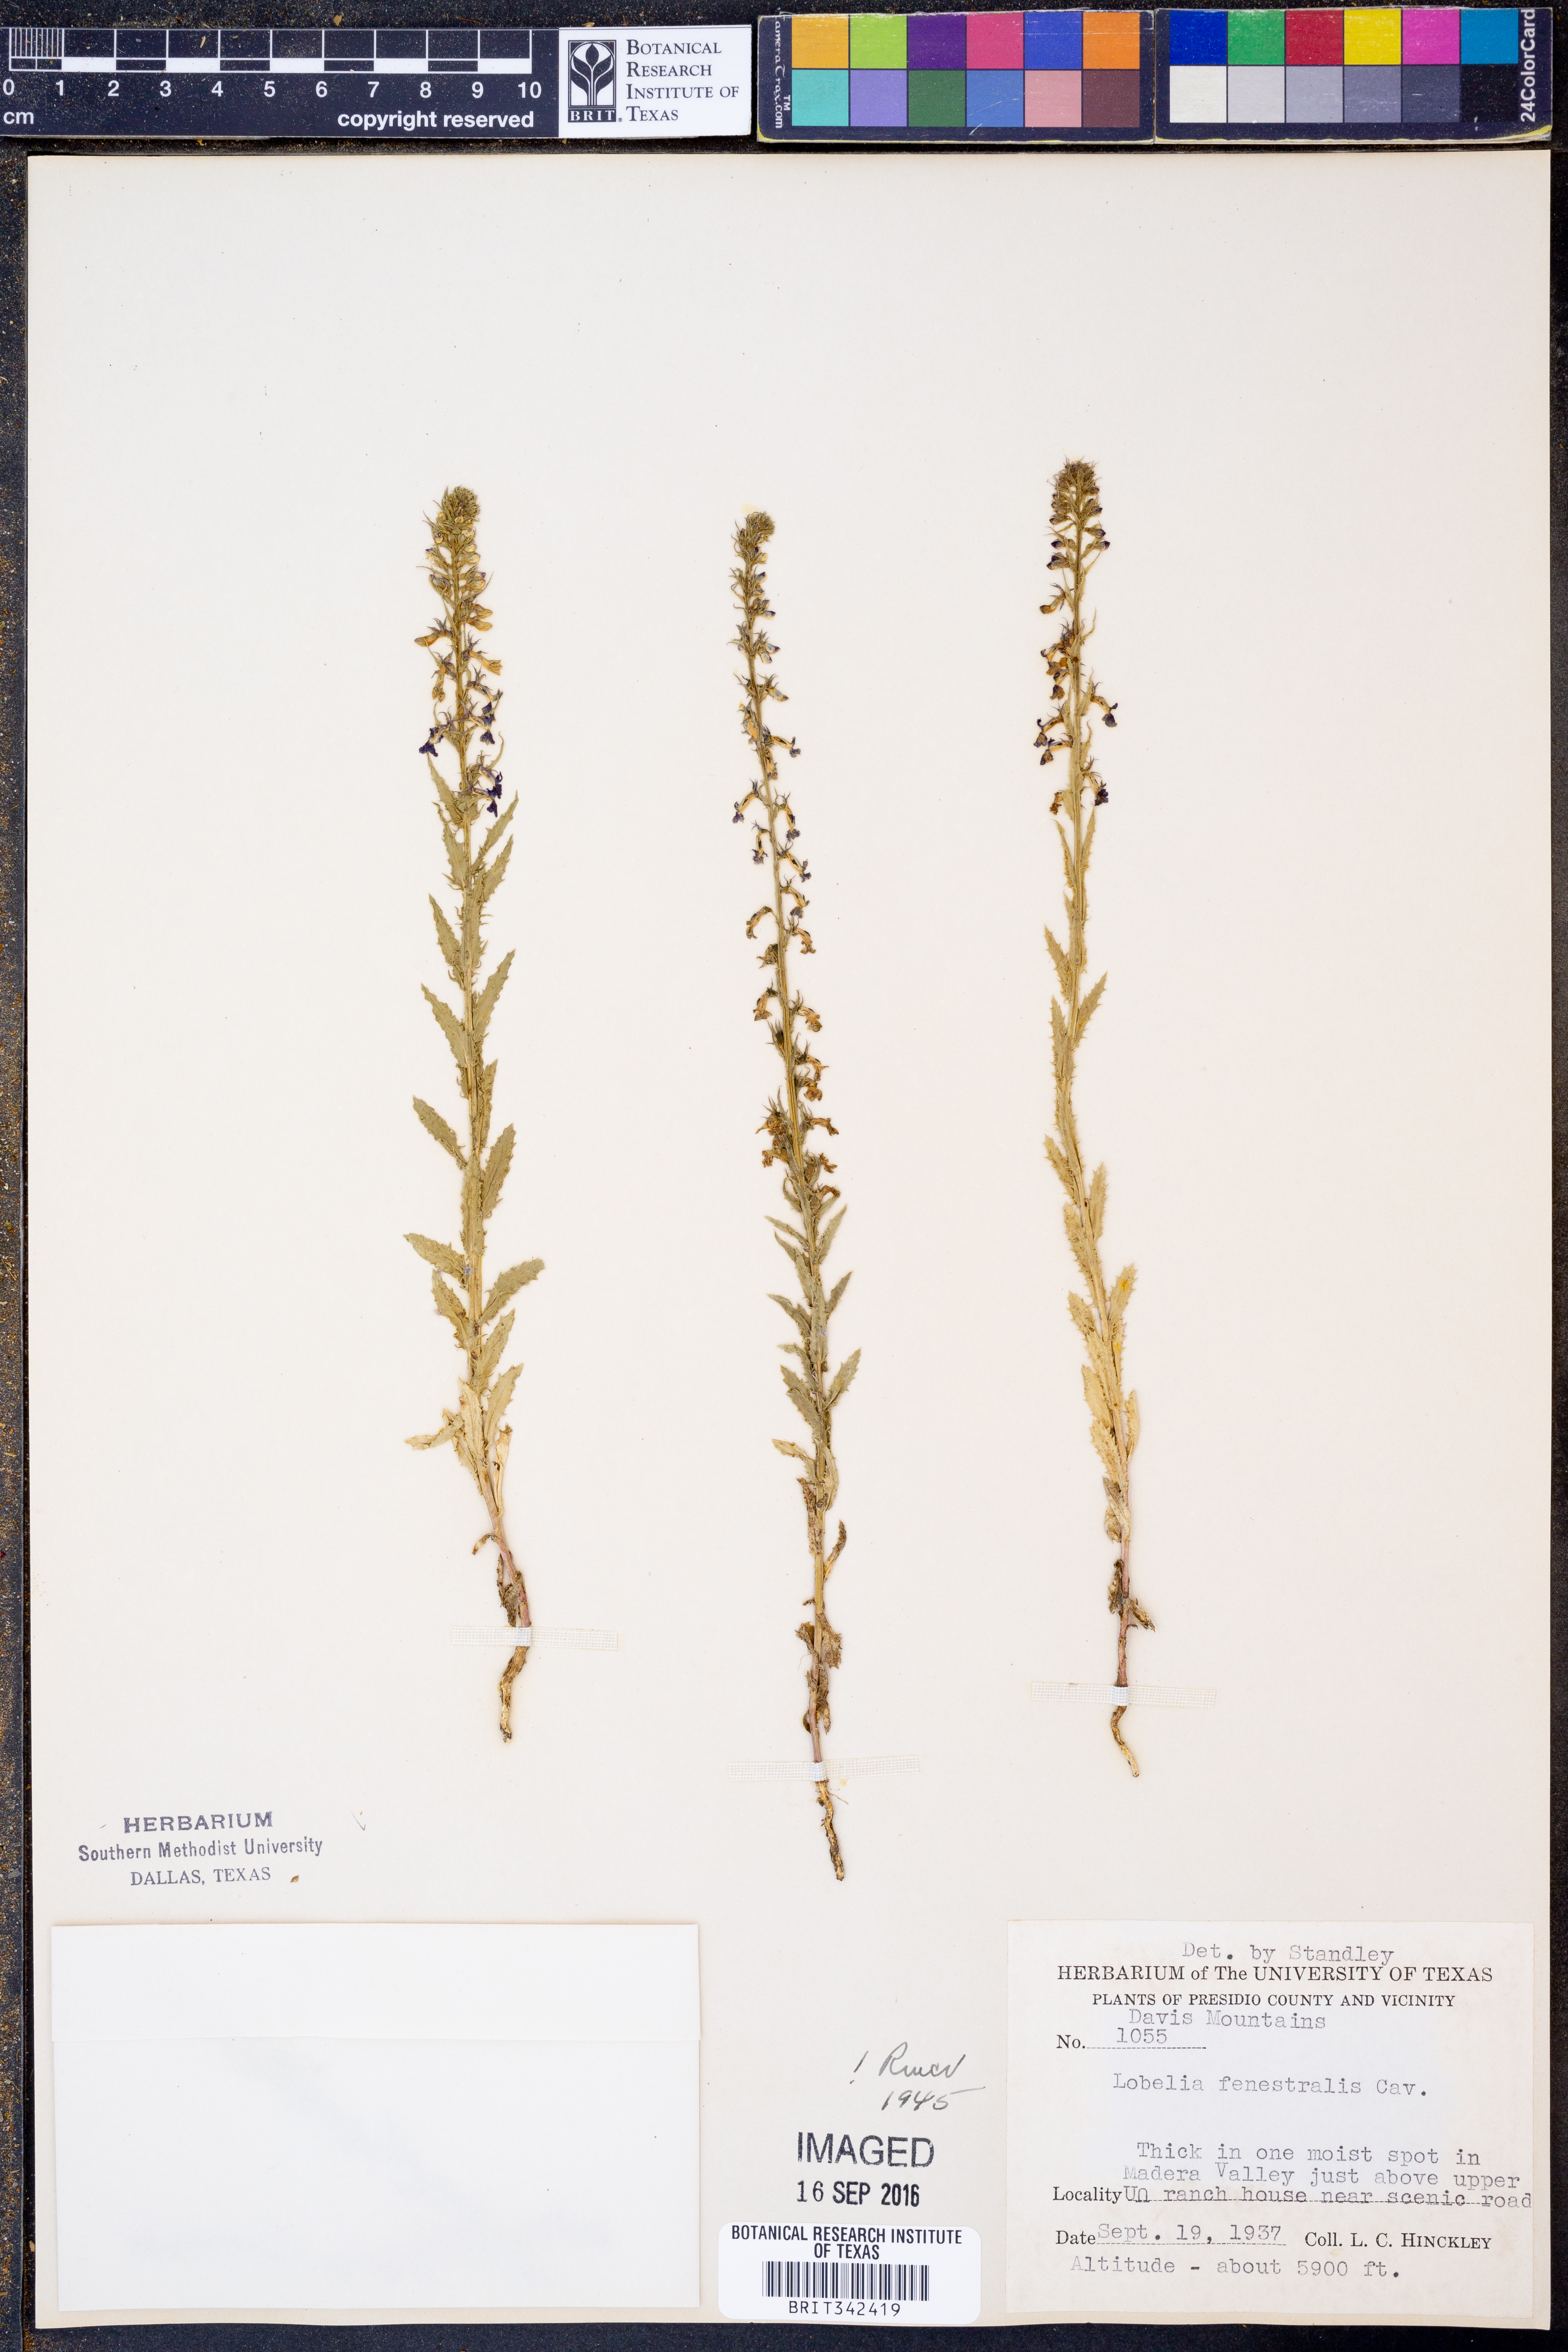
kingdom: Plantae
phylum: Tracheophyta
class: Magnoliopsida
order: Asterales
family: Campanulaceae
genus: Lobelia
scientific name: Lobelia fenestralis
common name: Leafy lobelia
